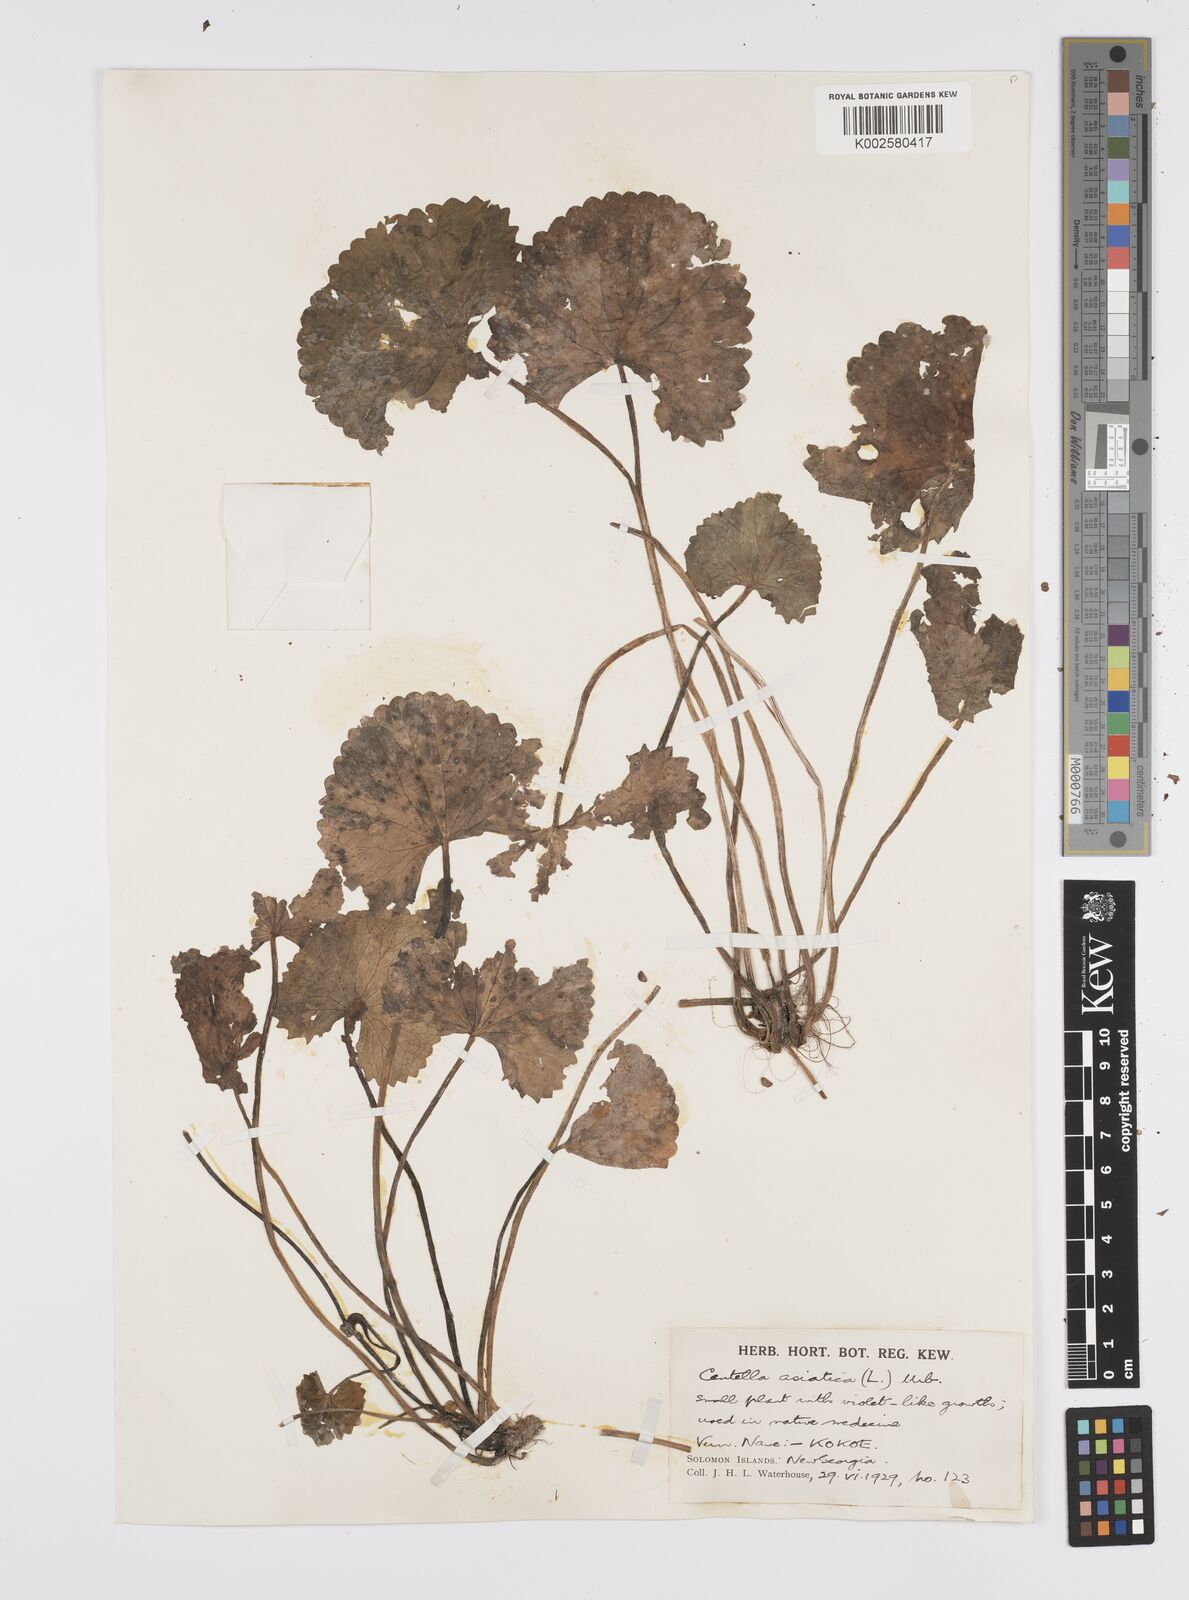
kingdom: Plantae
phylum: Tracheophyta
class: Magnoliopsida
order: Apiales
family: Apiaceae
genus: Centella
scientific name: Centella asiatica
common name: Spadeleaf
